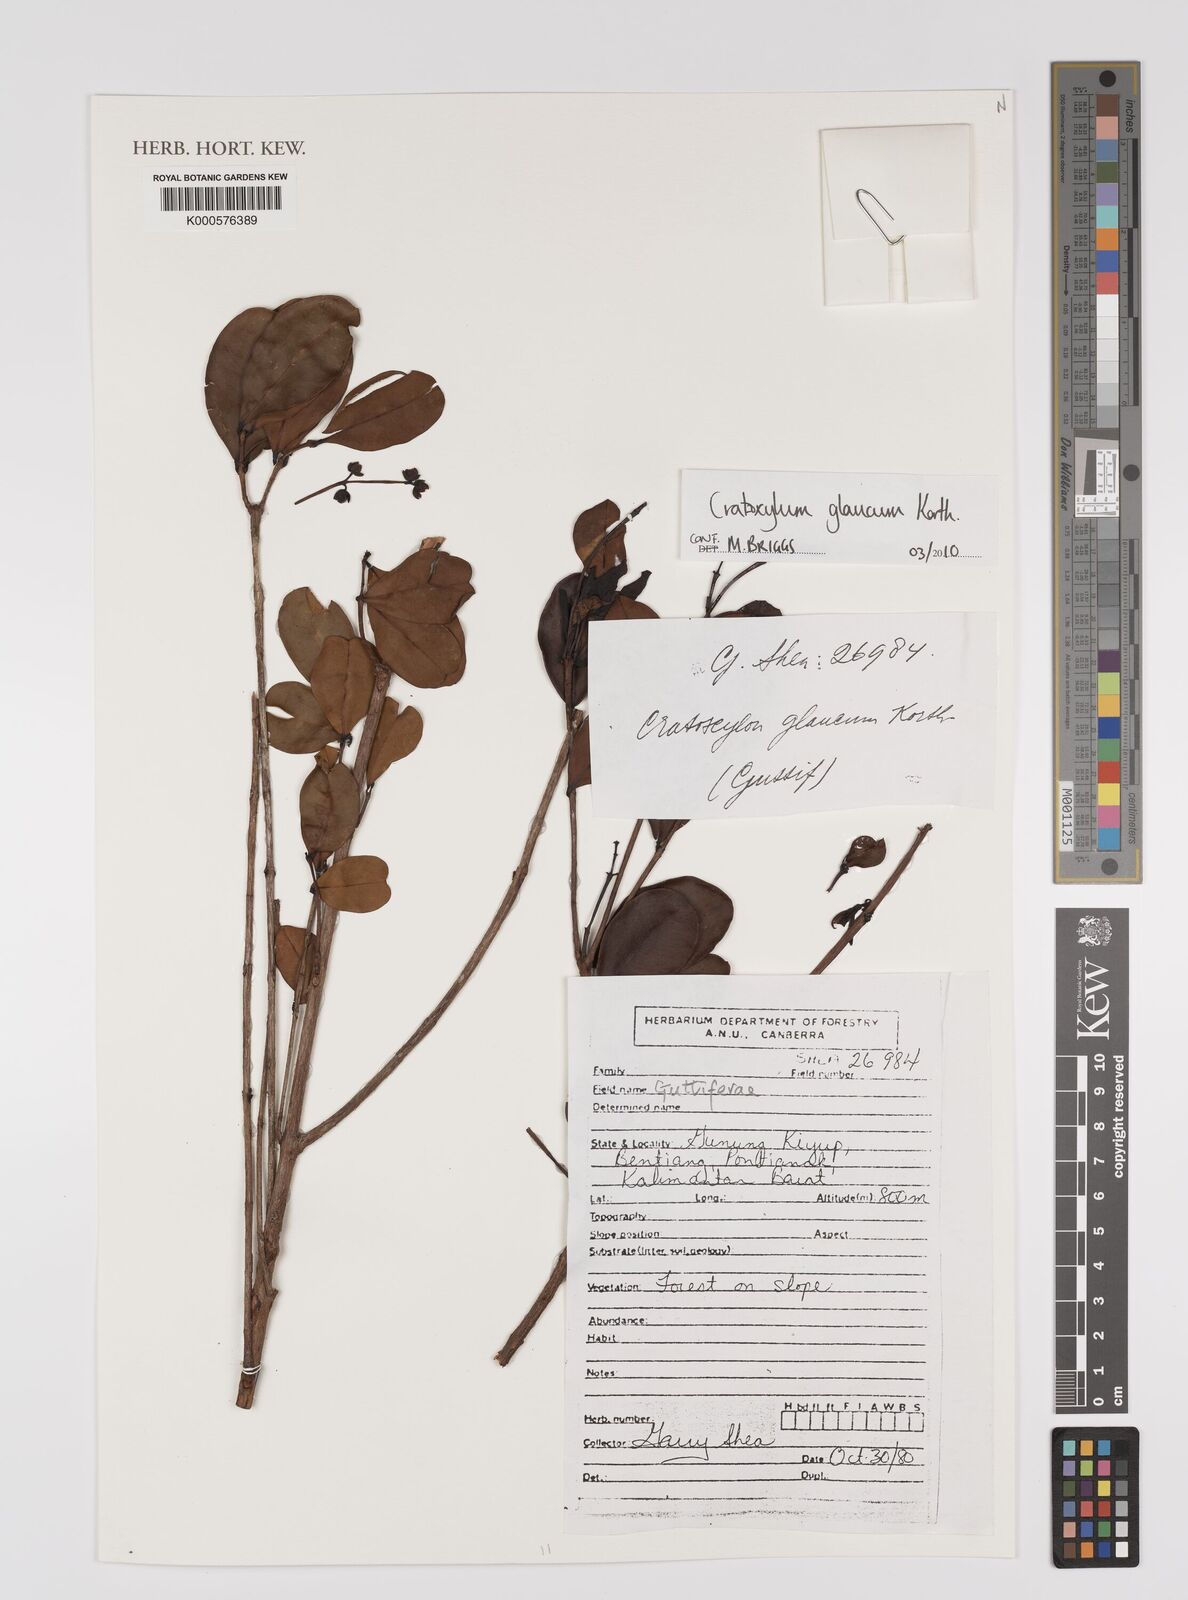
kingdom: Plantae
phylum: Tracheophyta
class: Magnoliopsida
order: Malpighiales
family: Hypericaceae
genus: Cratoxylum
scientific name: Cratoxylum glaucum
